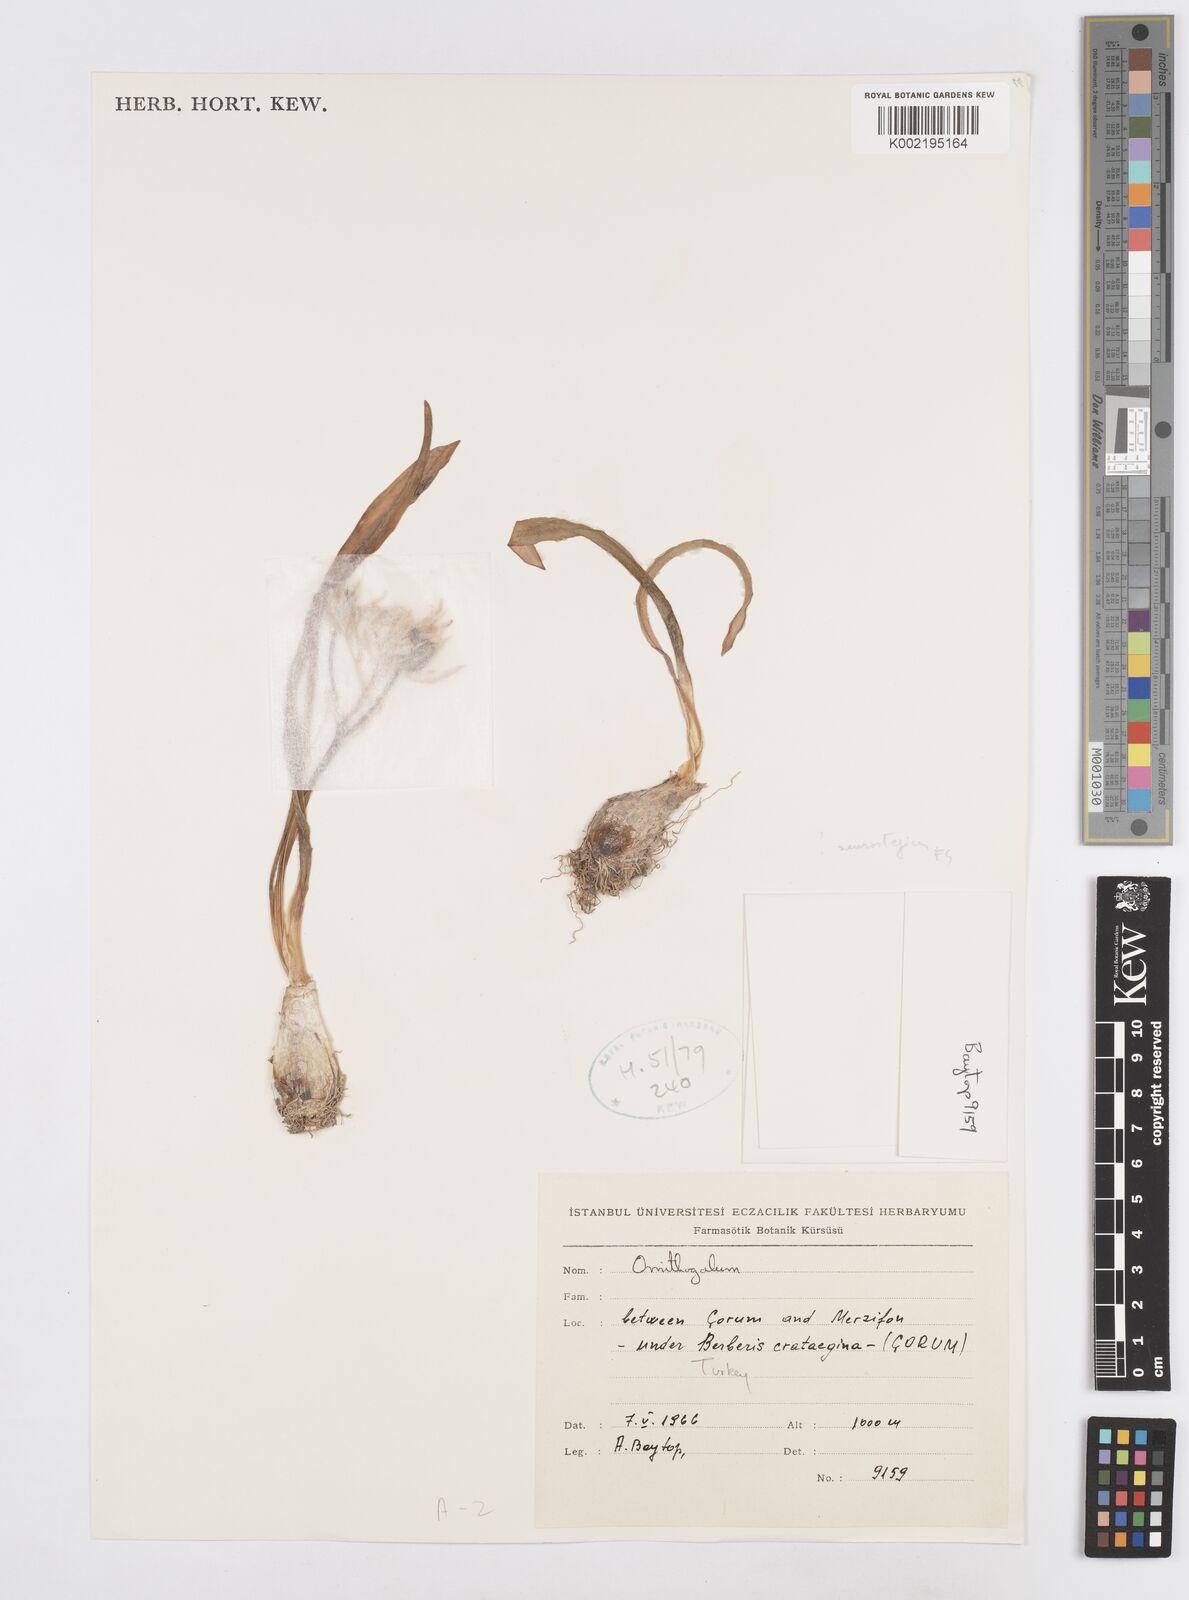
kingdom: Plantae
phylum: Tracheophyta
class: Liliopsida
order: Asparagales
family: Asparagaceae
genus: Ornithogalum
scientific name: Ornithogalum neurostegium
